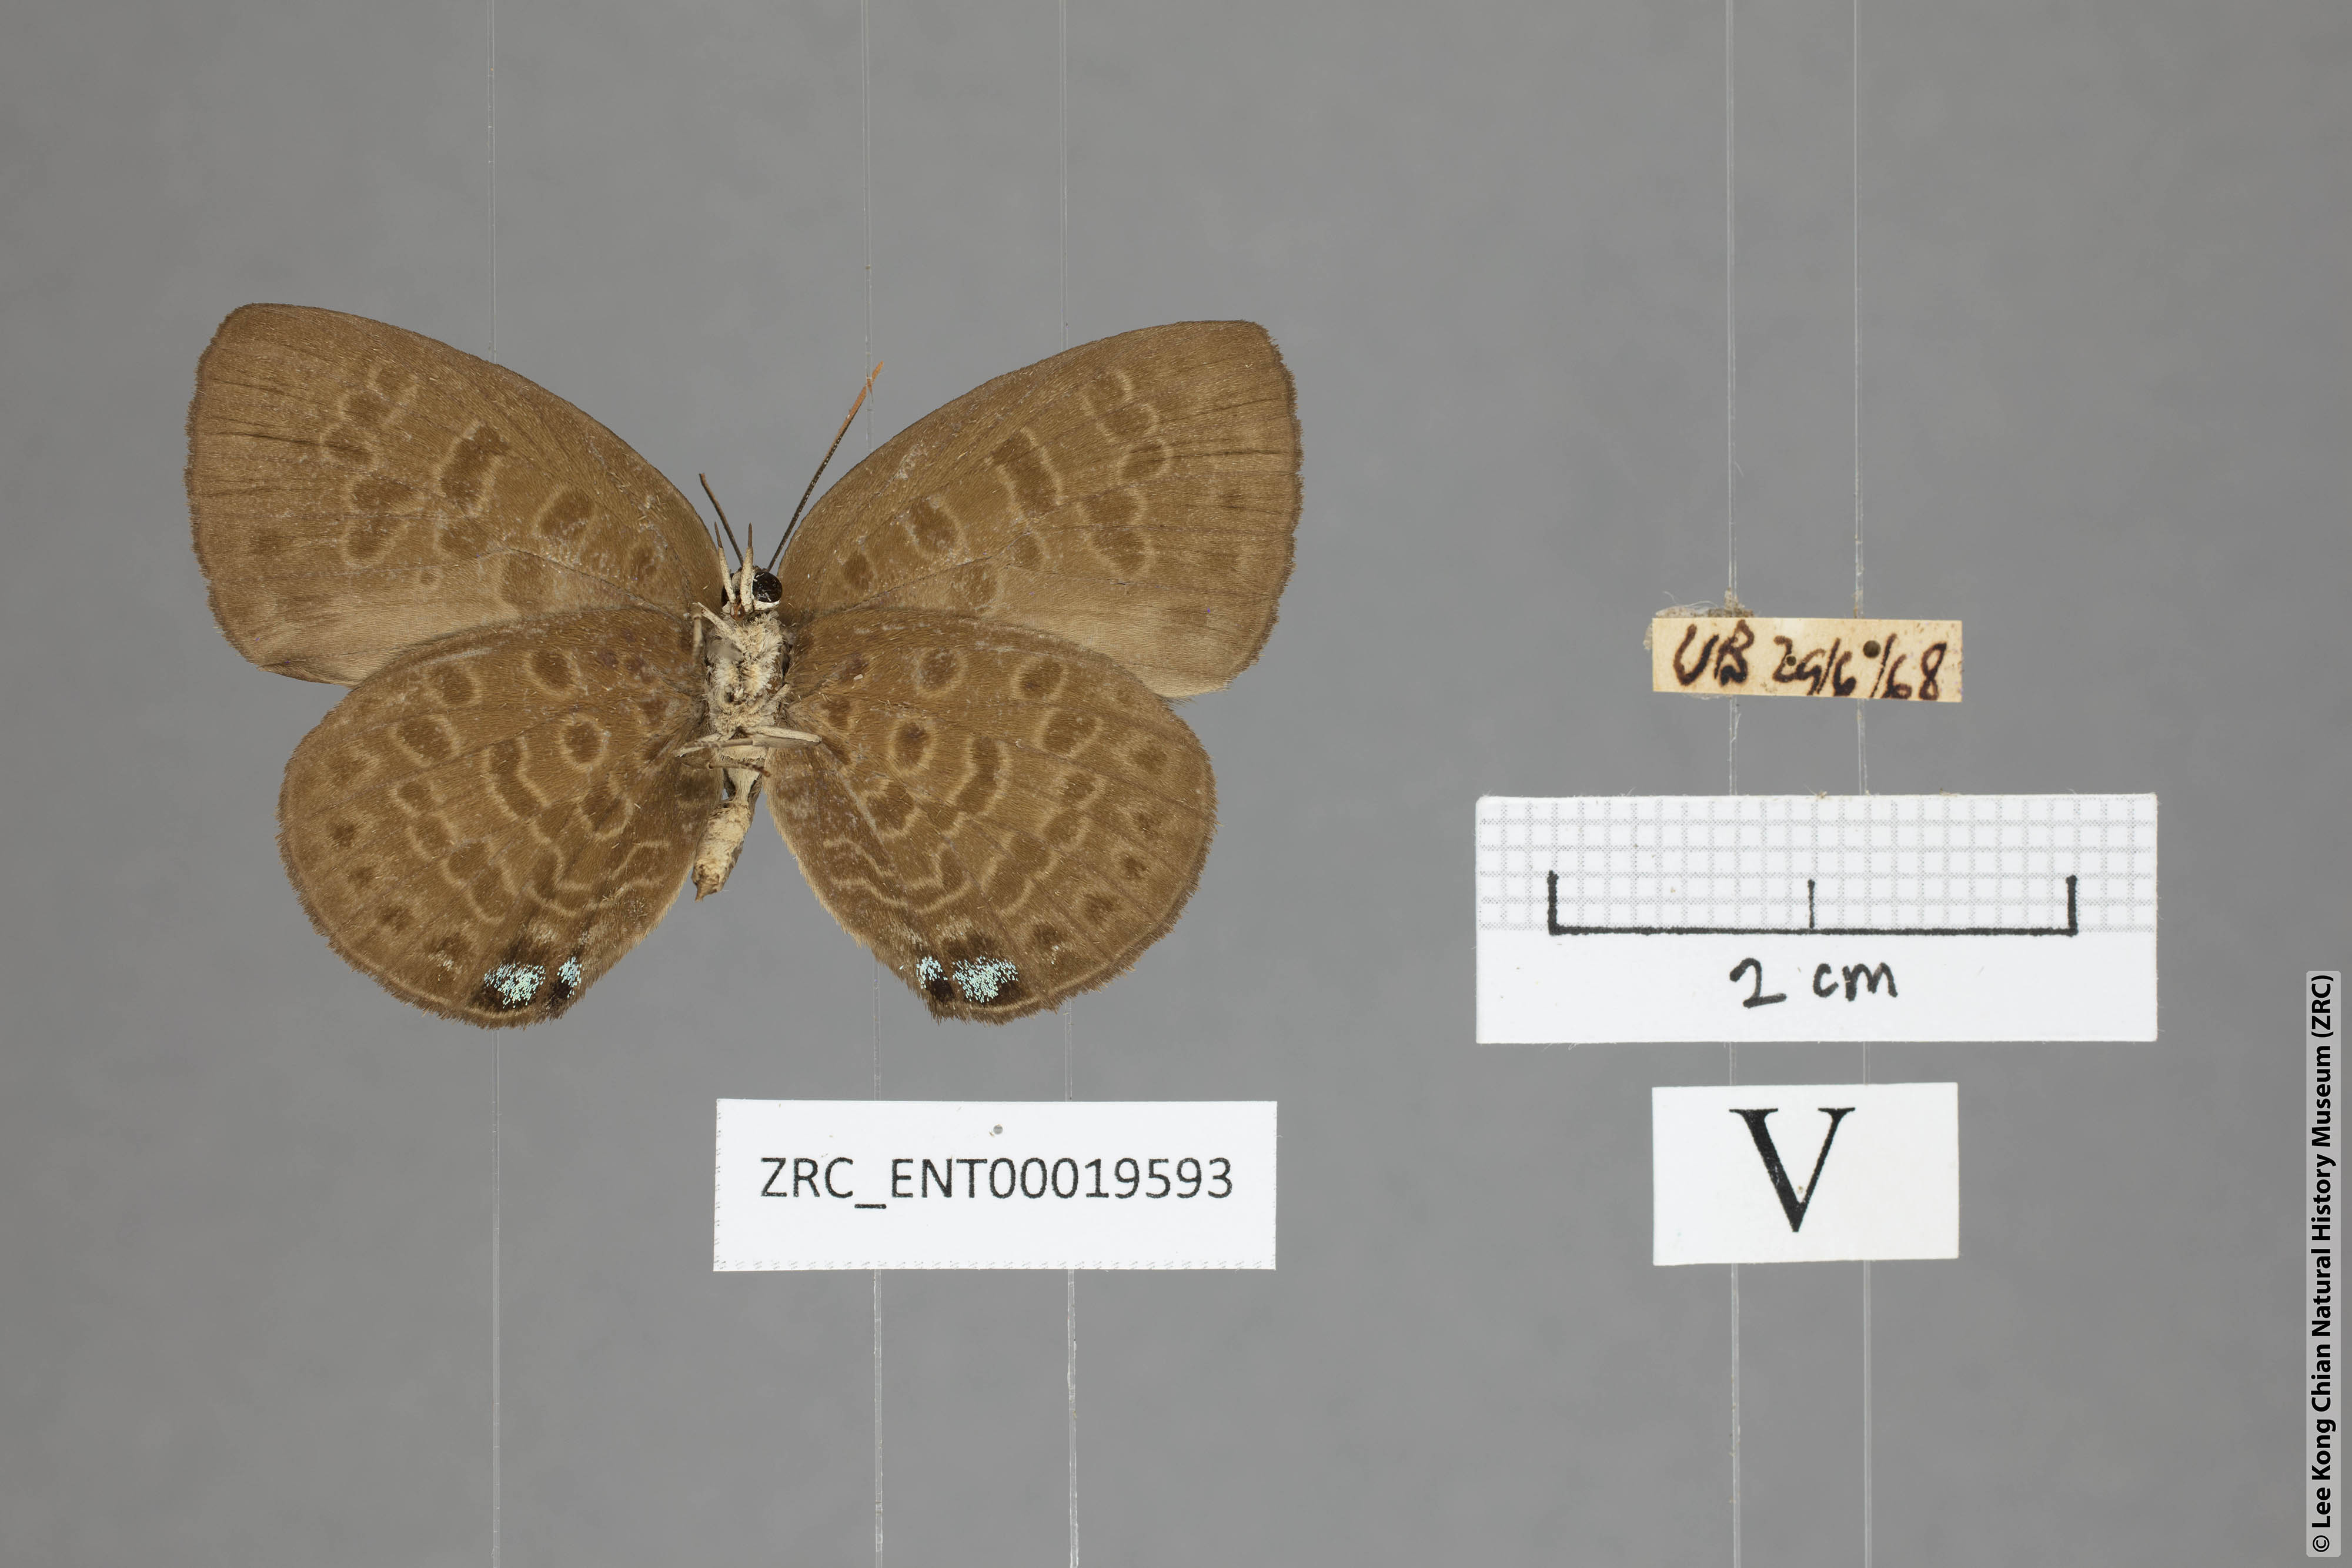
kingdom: Animalia
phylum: Arthropoda
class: Insecta
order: Lepidoptera
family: Lycaenidae
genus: Arhopala
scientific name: Arhopala kurzi
